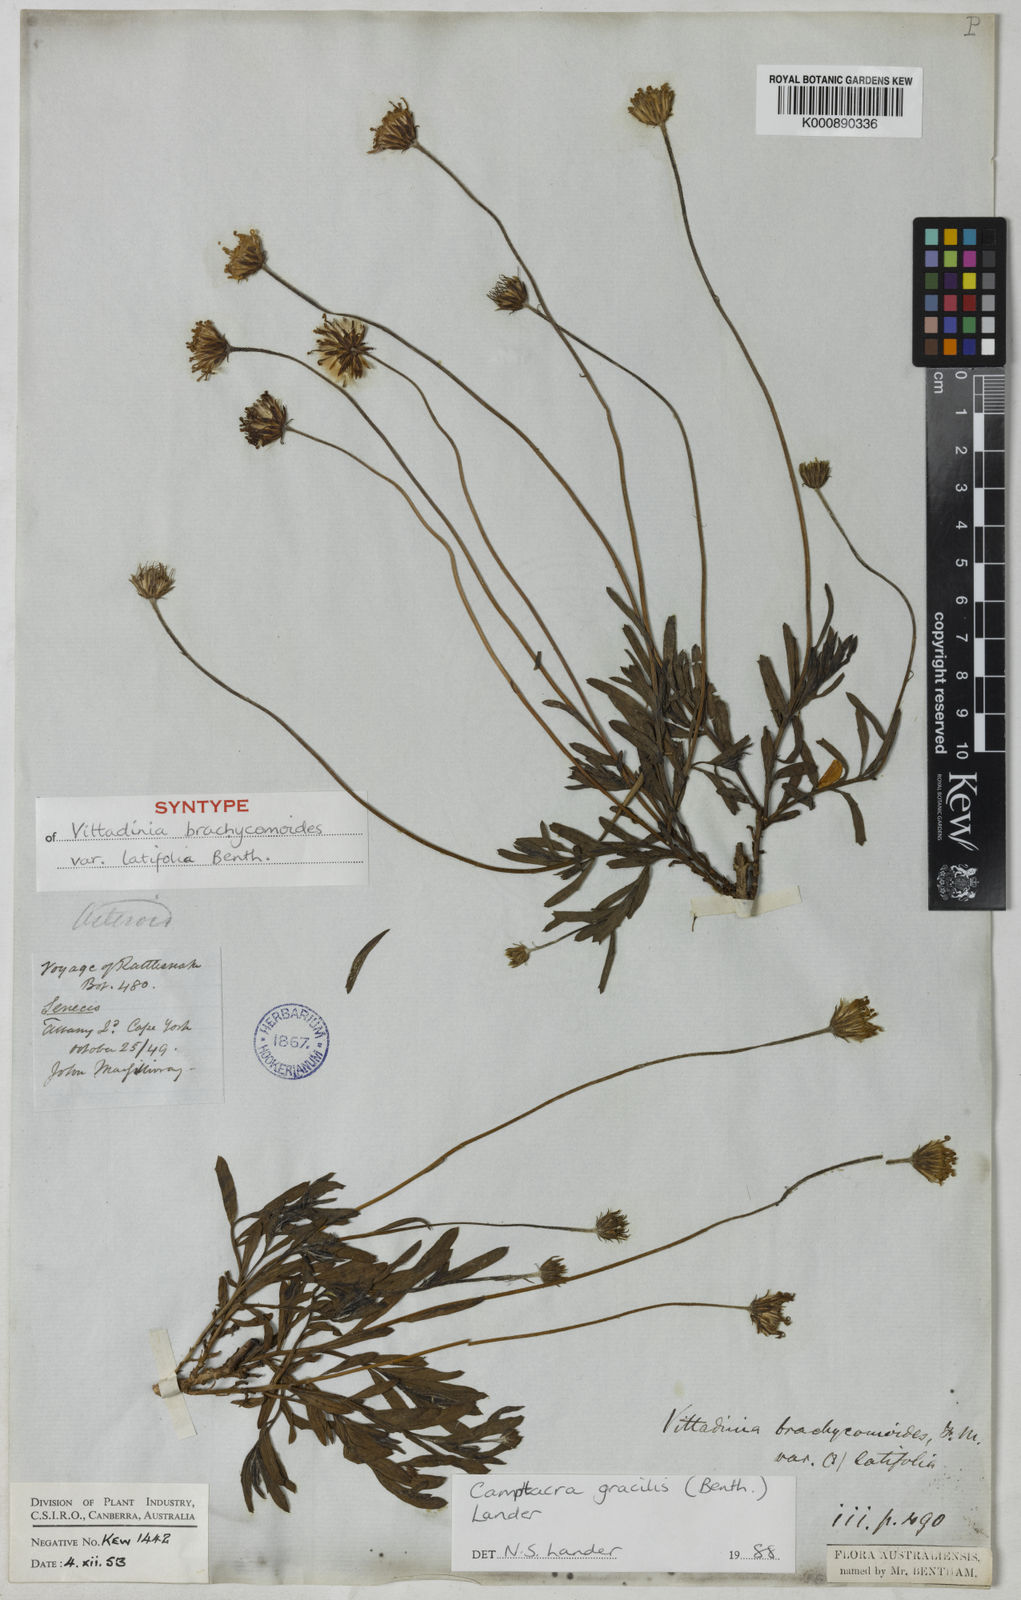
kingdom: Plantae
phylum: Tracheophyta
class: Magnoliopsida
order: Asterales
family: Asteraceae
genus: Camptacra
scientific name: Camptacra robusta
